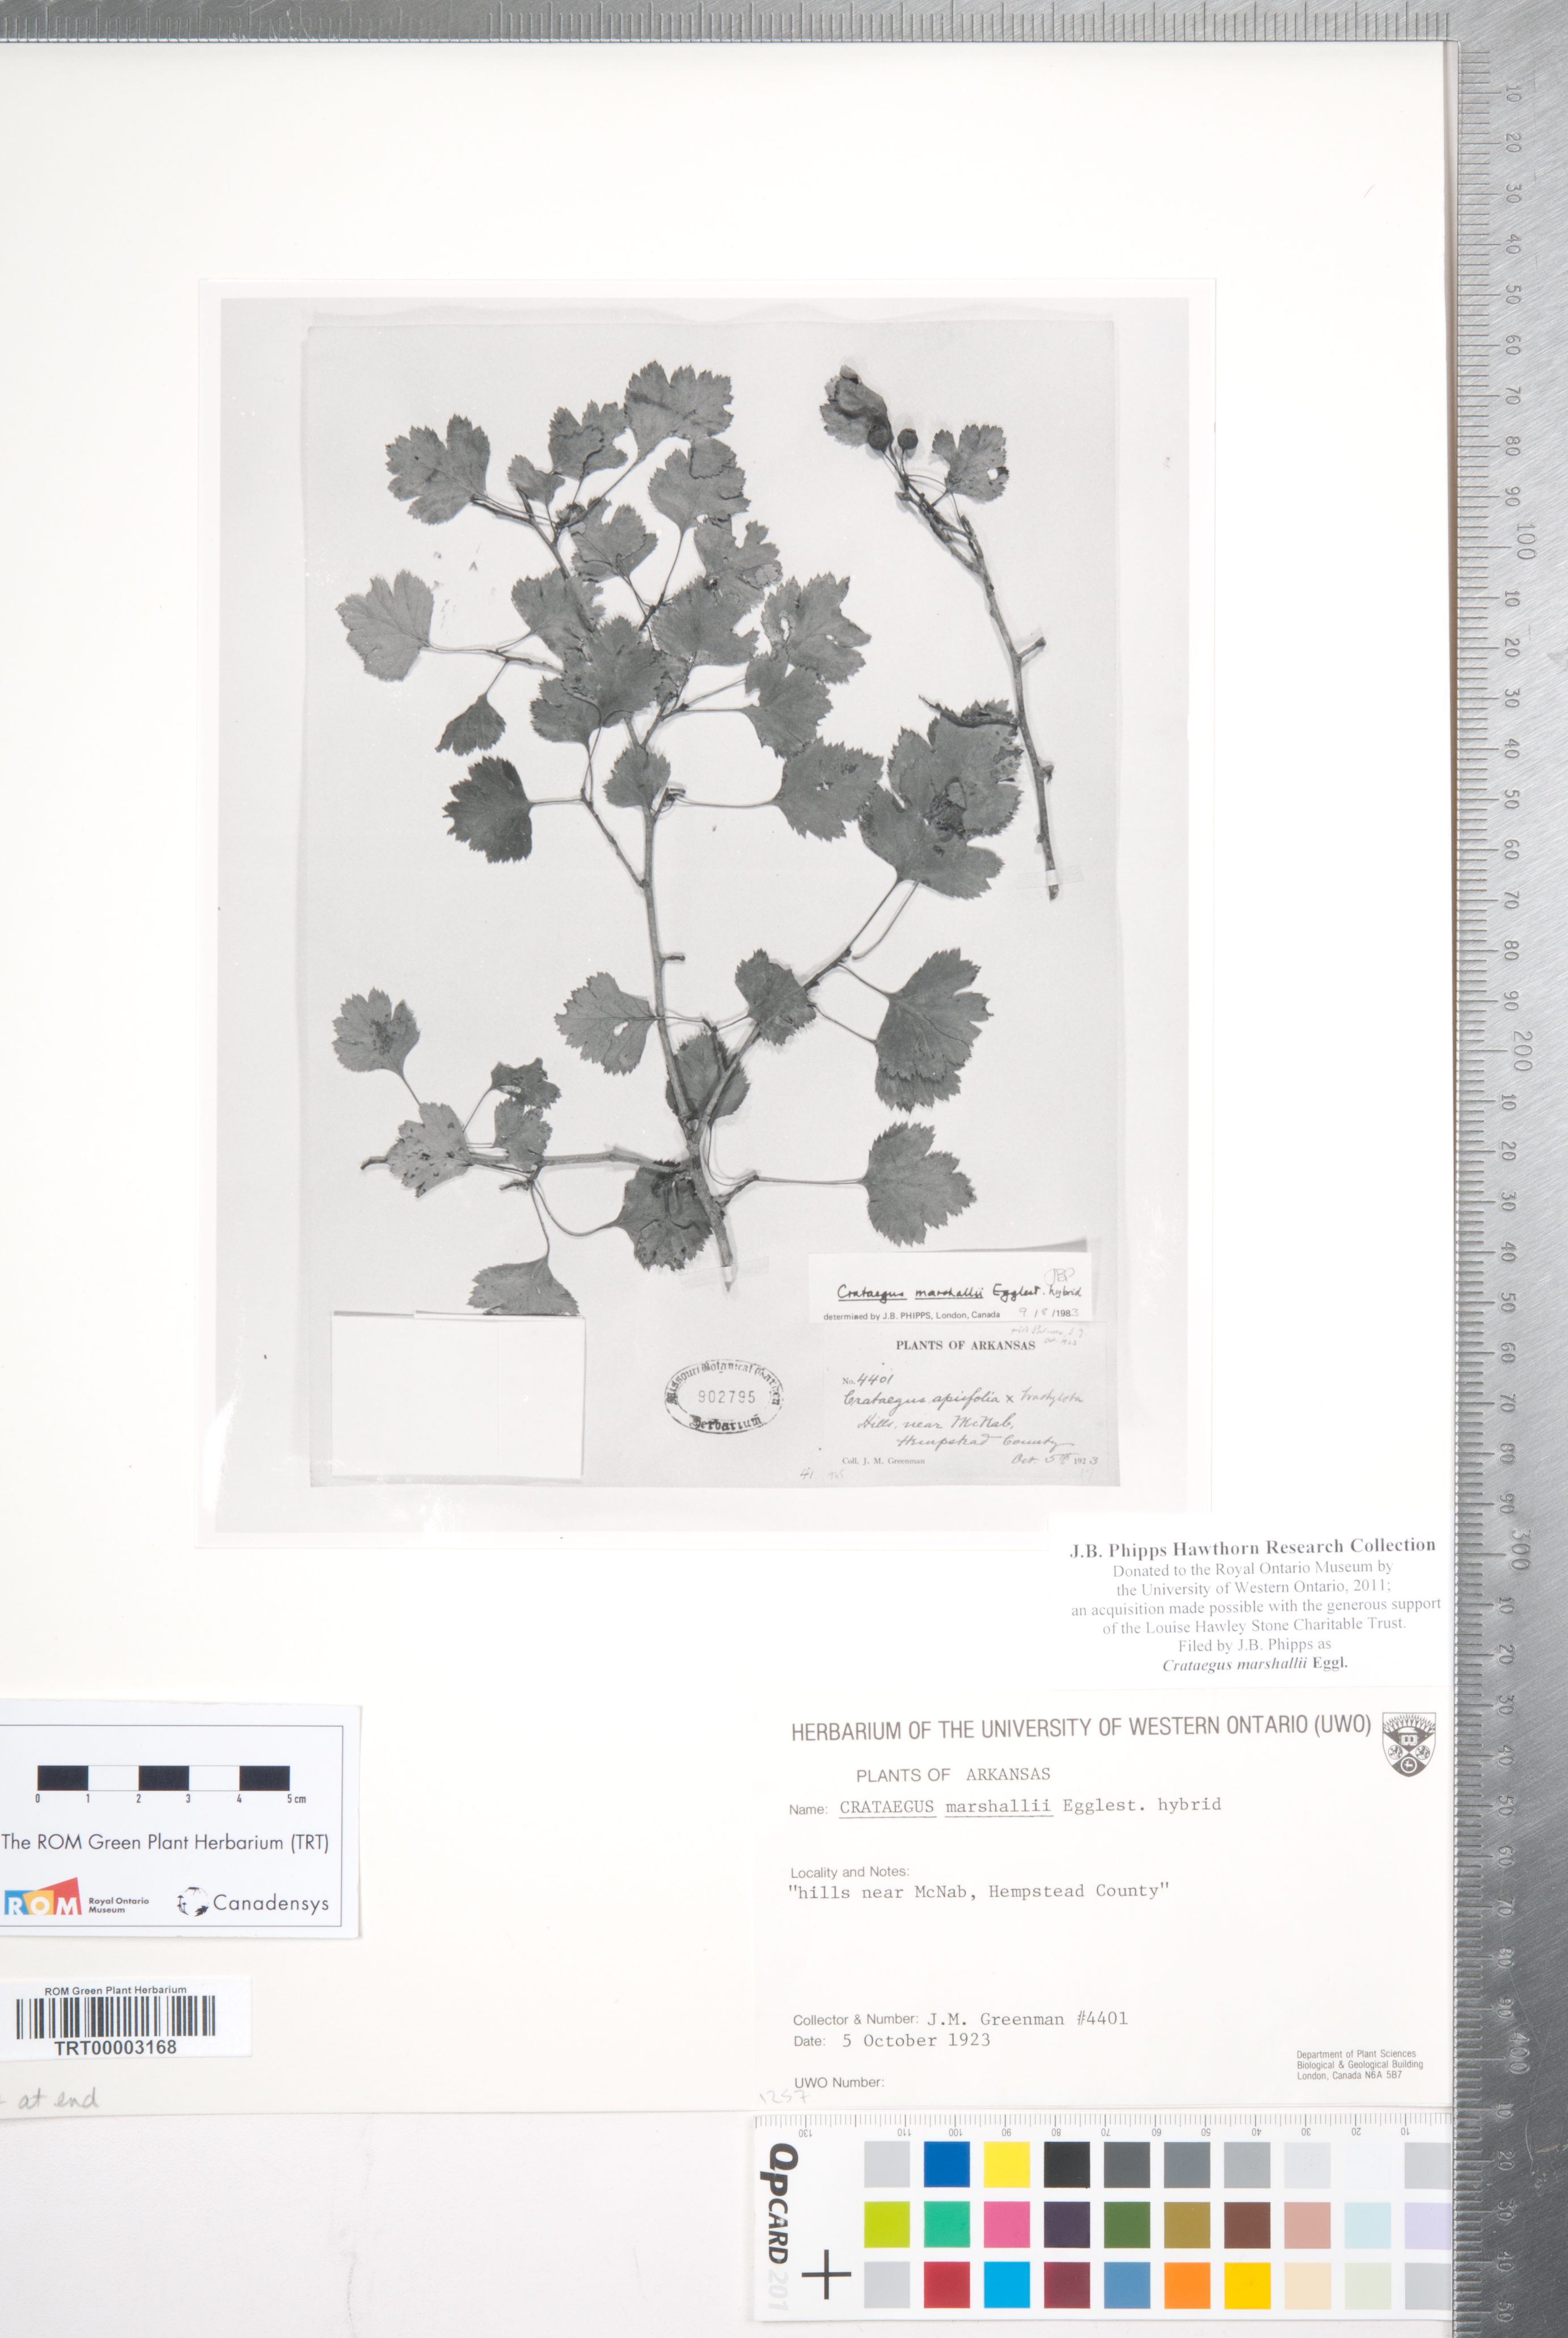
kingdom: Plantae
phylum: Tracheophyta
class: Magnoliopsida
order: Rosales
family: Rosaceae
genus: Crataegus
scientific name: Crataegus marshallii
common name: Parsley-hawthorn
